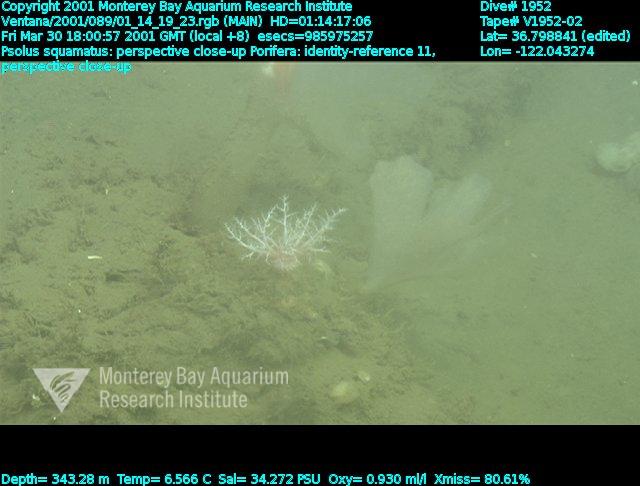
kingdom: Animalia
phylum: Porifera
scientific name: Porifera
